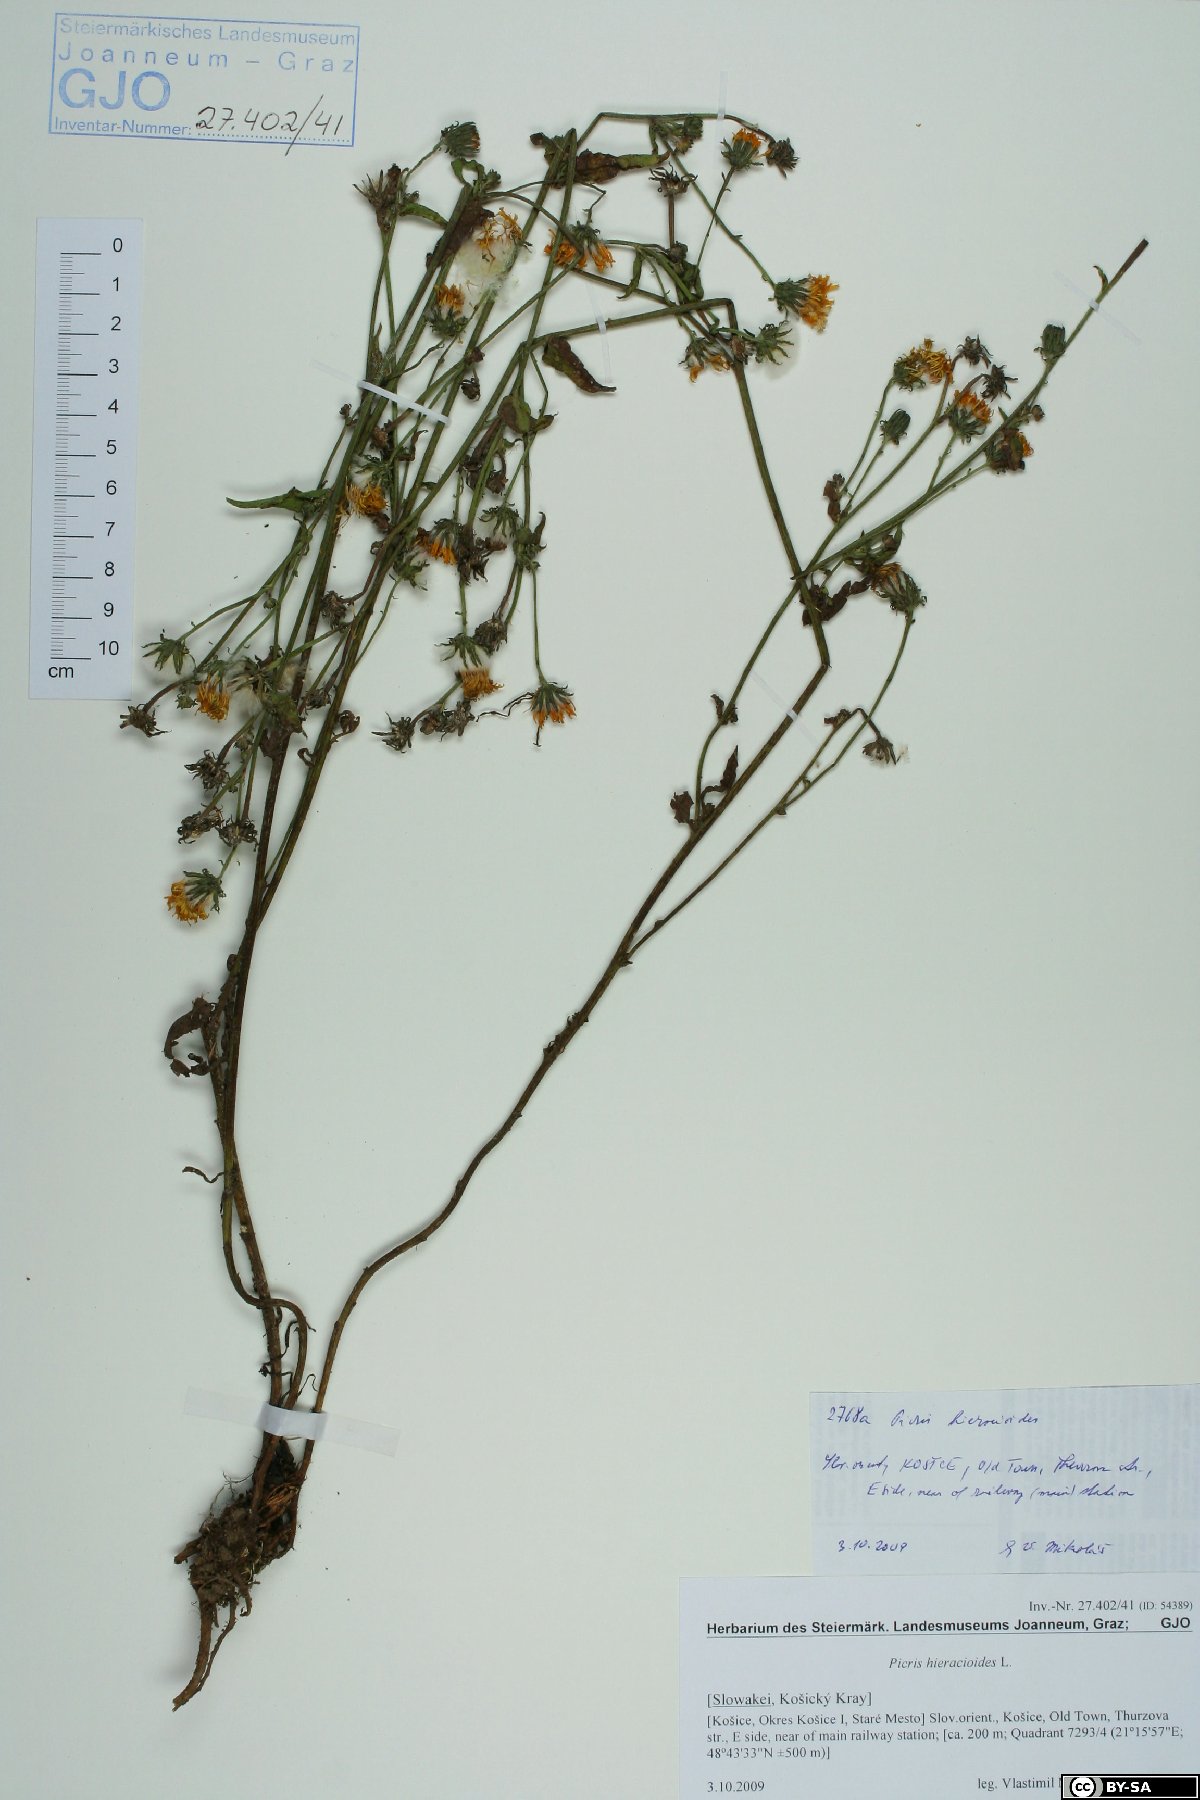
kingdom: Plantae
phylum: Tracheophyta
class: Magnoliopsida
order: Asterales
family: Asteraceae
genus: Picris
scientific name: Picris hieracioides
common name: Hawkweed oxtongue
